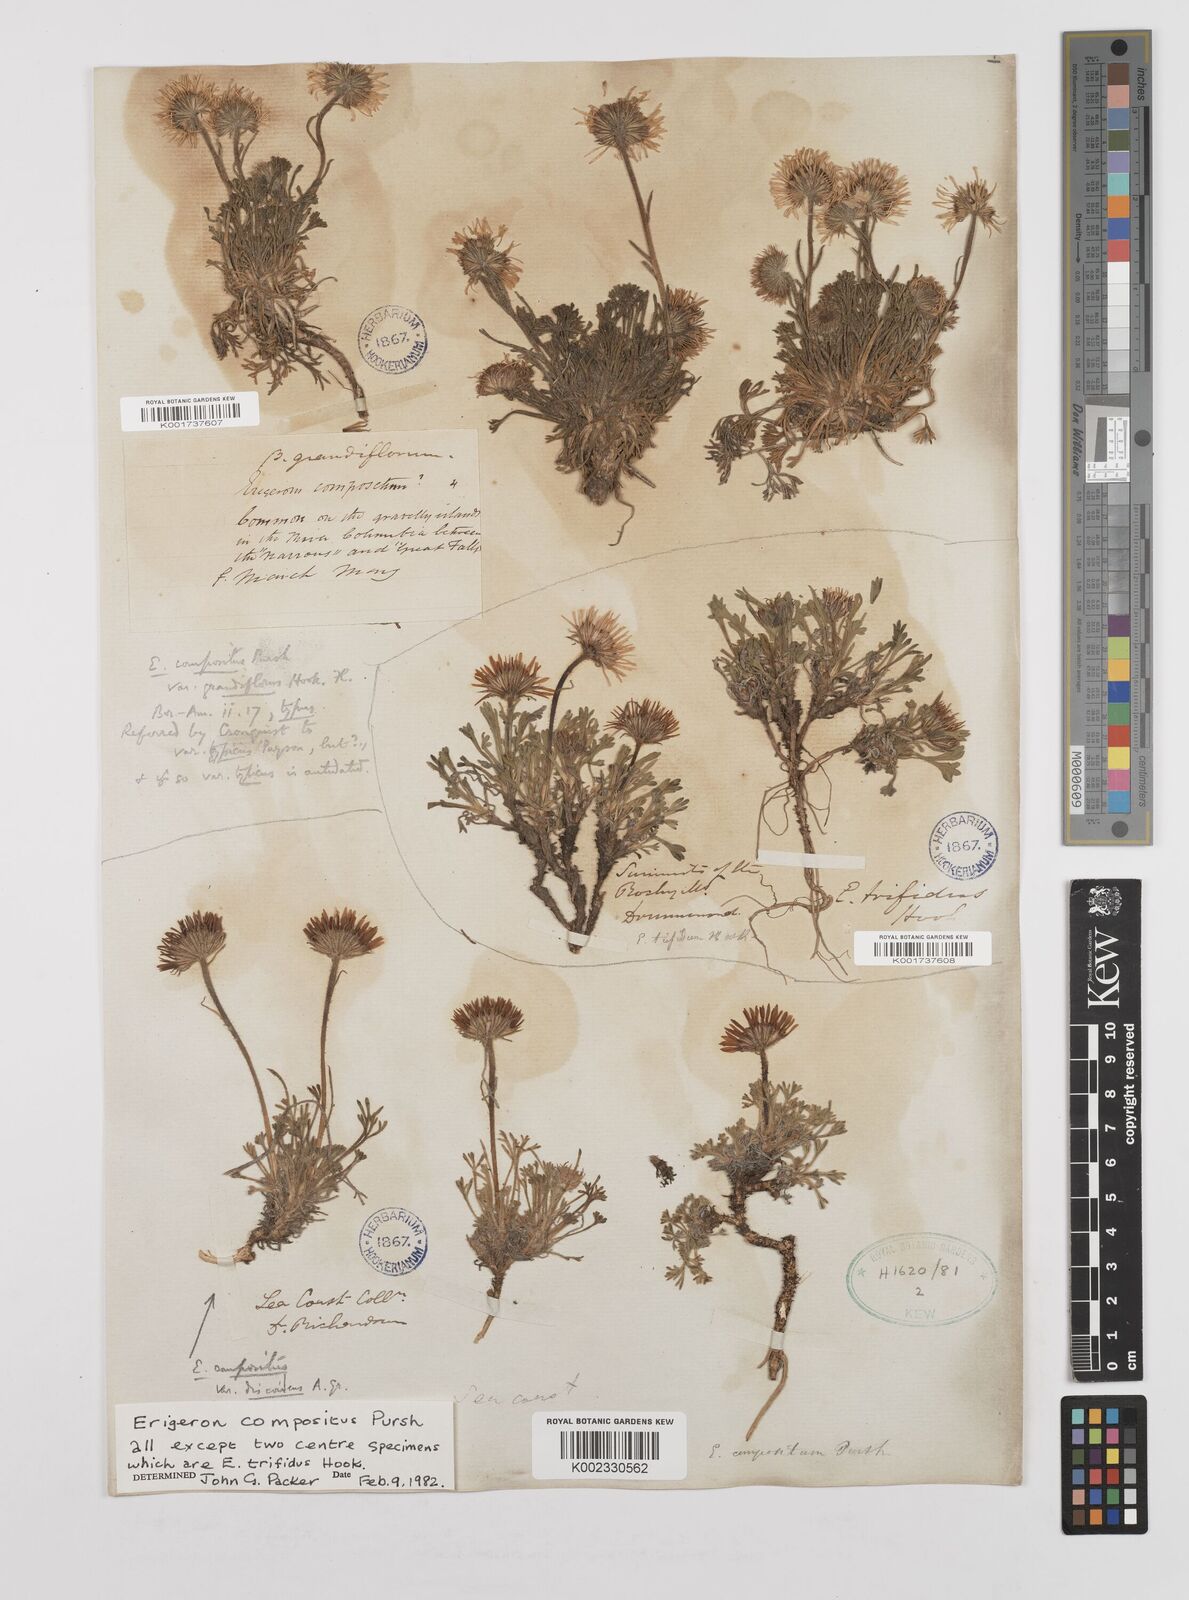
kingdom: Plantae
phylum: Tracheophyta
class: Magnoliopsida
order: Asterales
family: Asteraceae
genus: Erigeron
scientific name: Erigeron compositus
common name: Dwarf mountain fleabane
